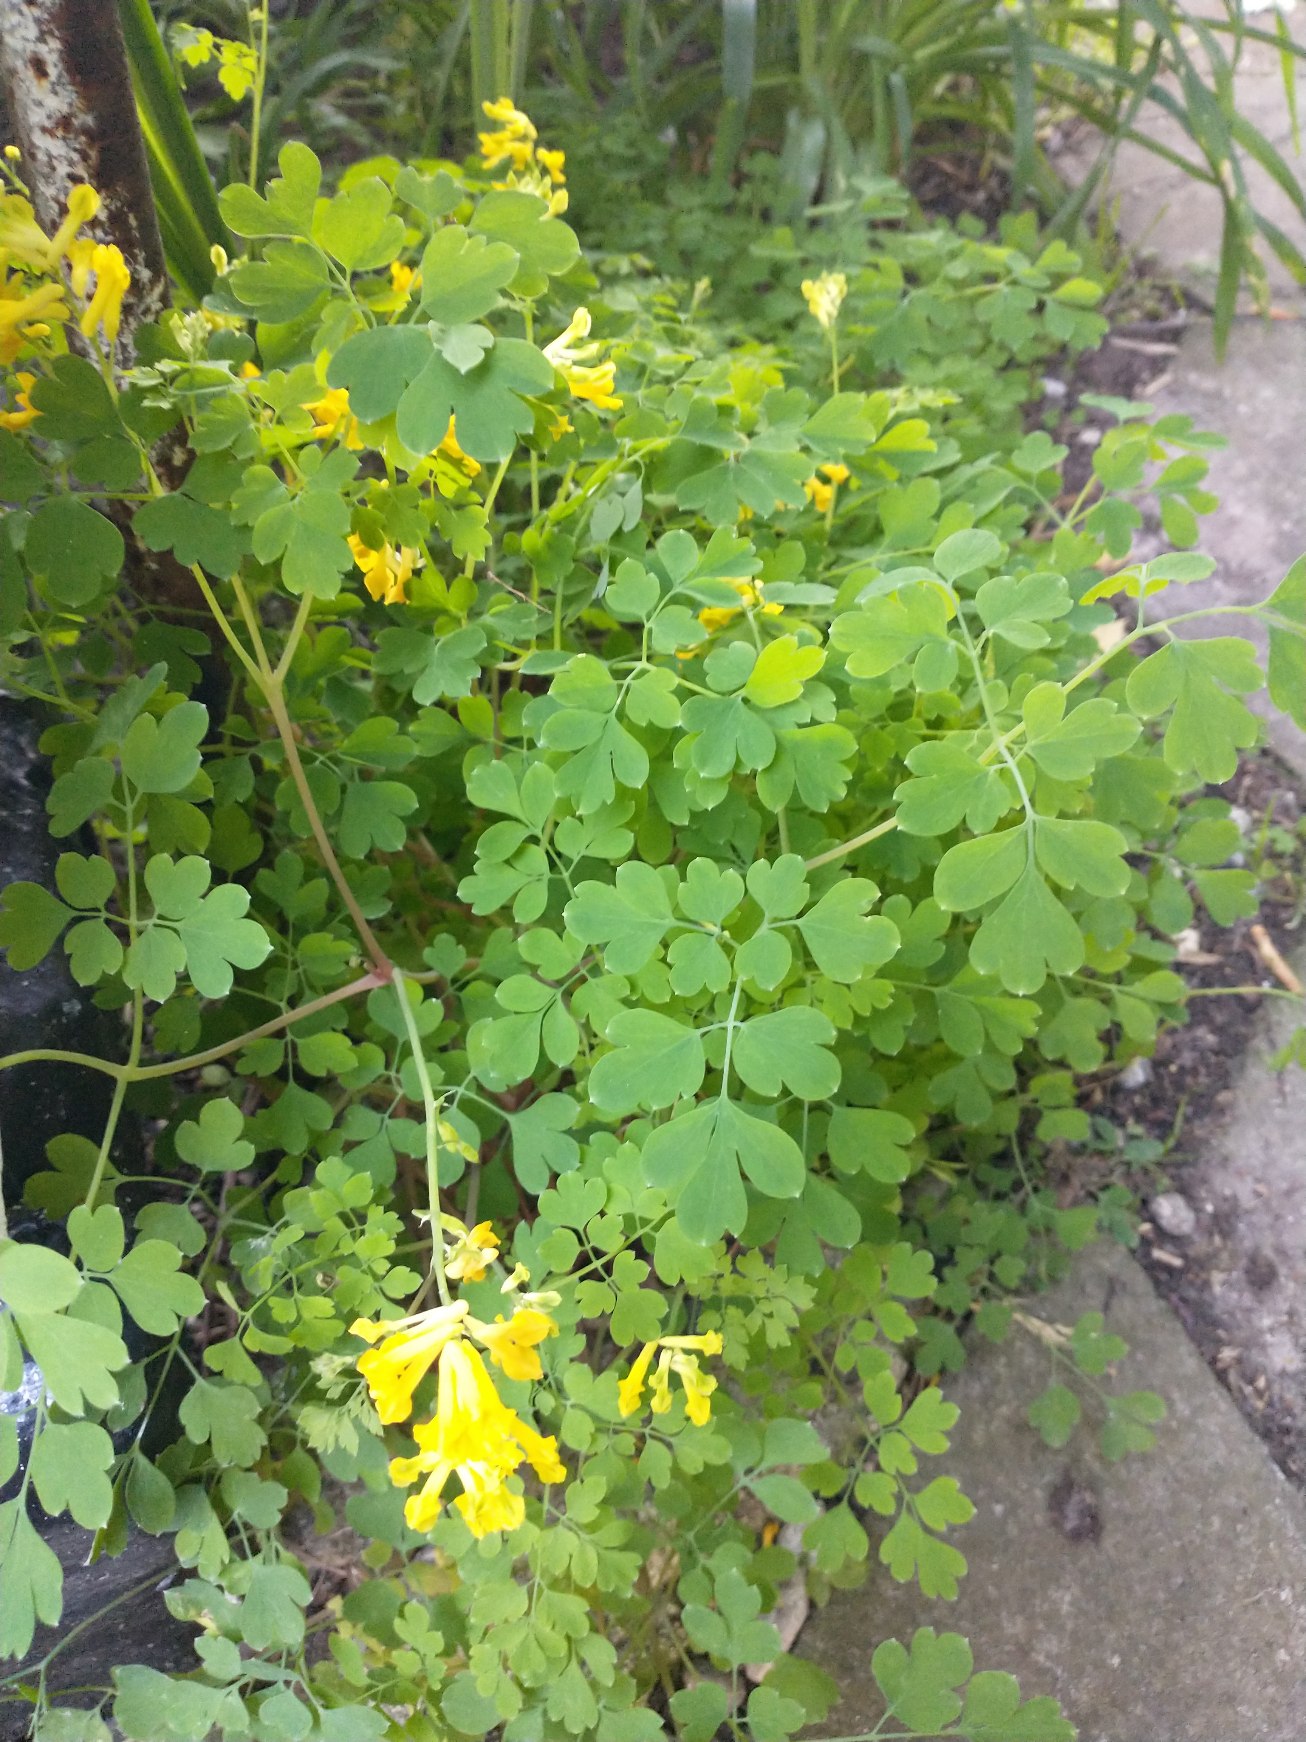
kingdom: Plantae
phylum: Tracheophyta
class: Magnoliopsida
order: Ranunculales
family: Papaveraceae
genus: Pseudofumaria
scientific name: Pseudofumaria lutea
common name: Gul lærkespore
